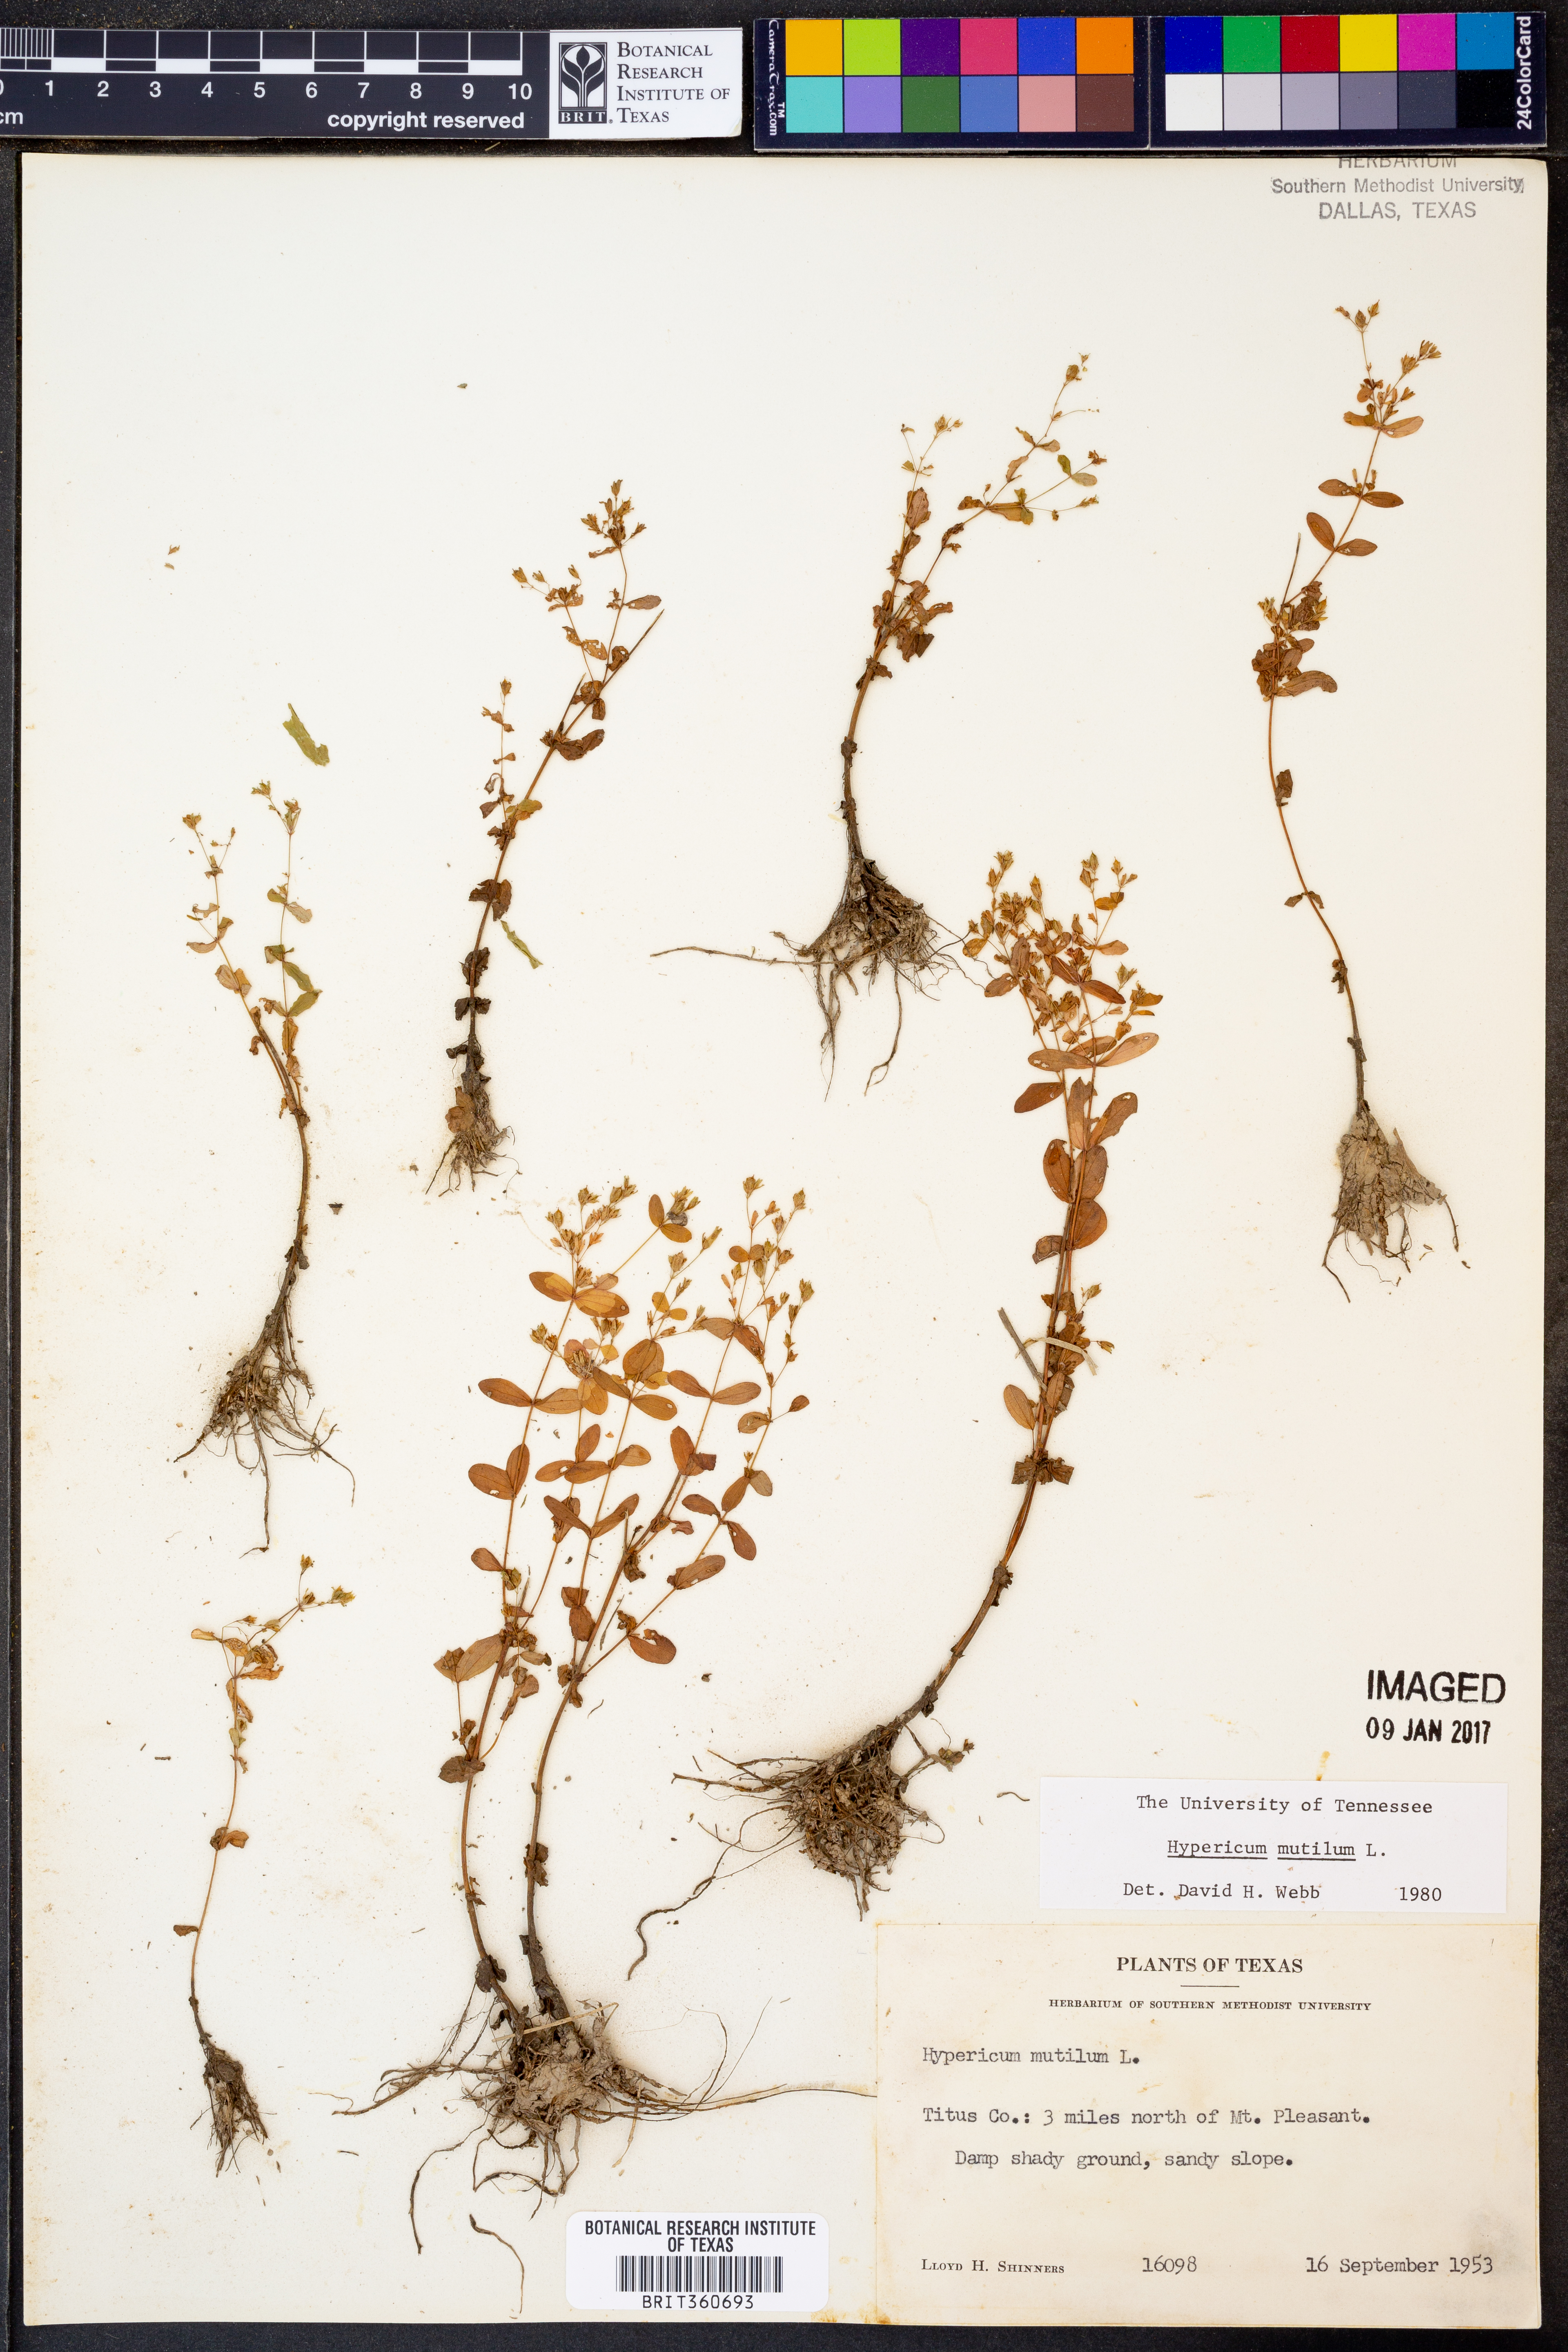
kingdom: Plantae
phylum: Tracheophyta
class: Magnoliopsida
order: Malpighiales
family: Hypericaceae
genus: Hypericum
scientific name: Hypericum mutilum
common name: Dwarf st. john's-wort
